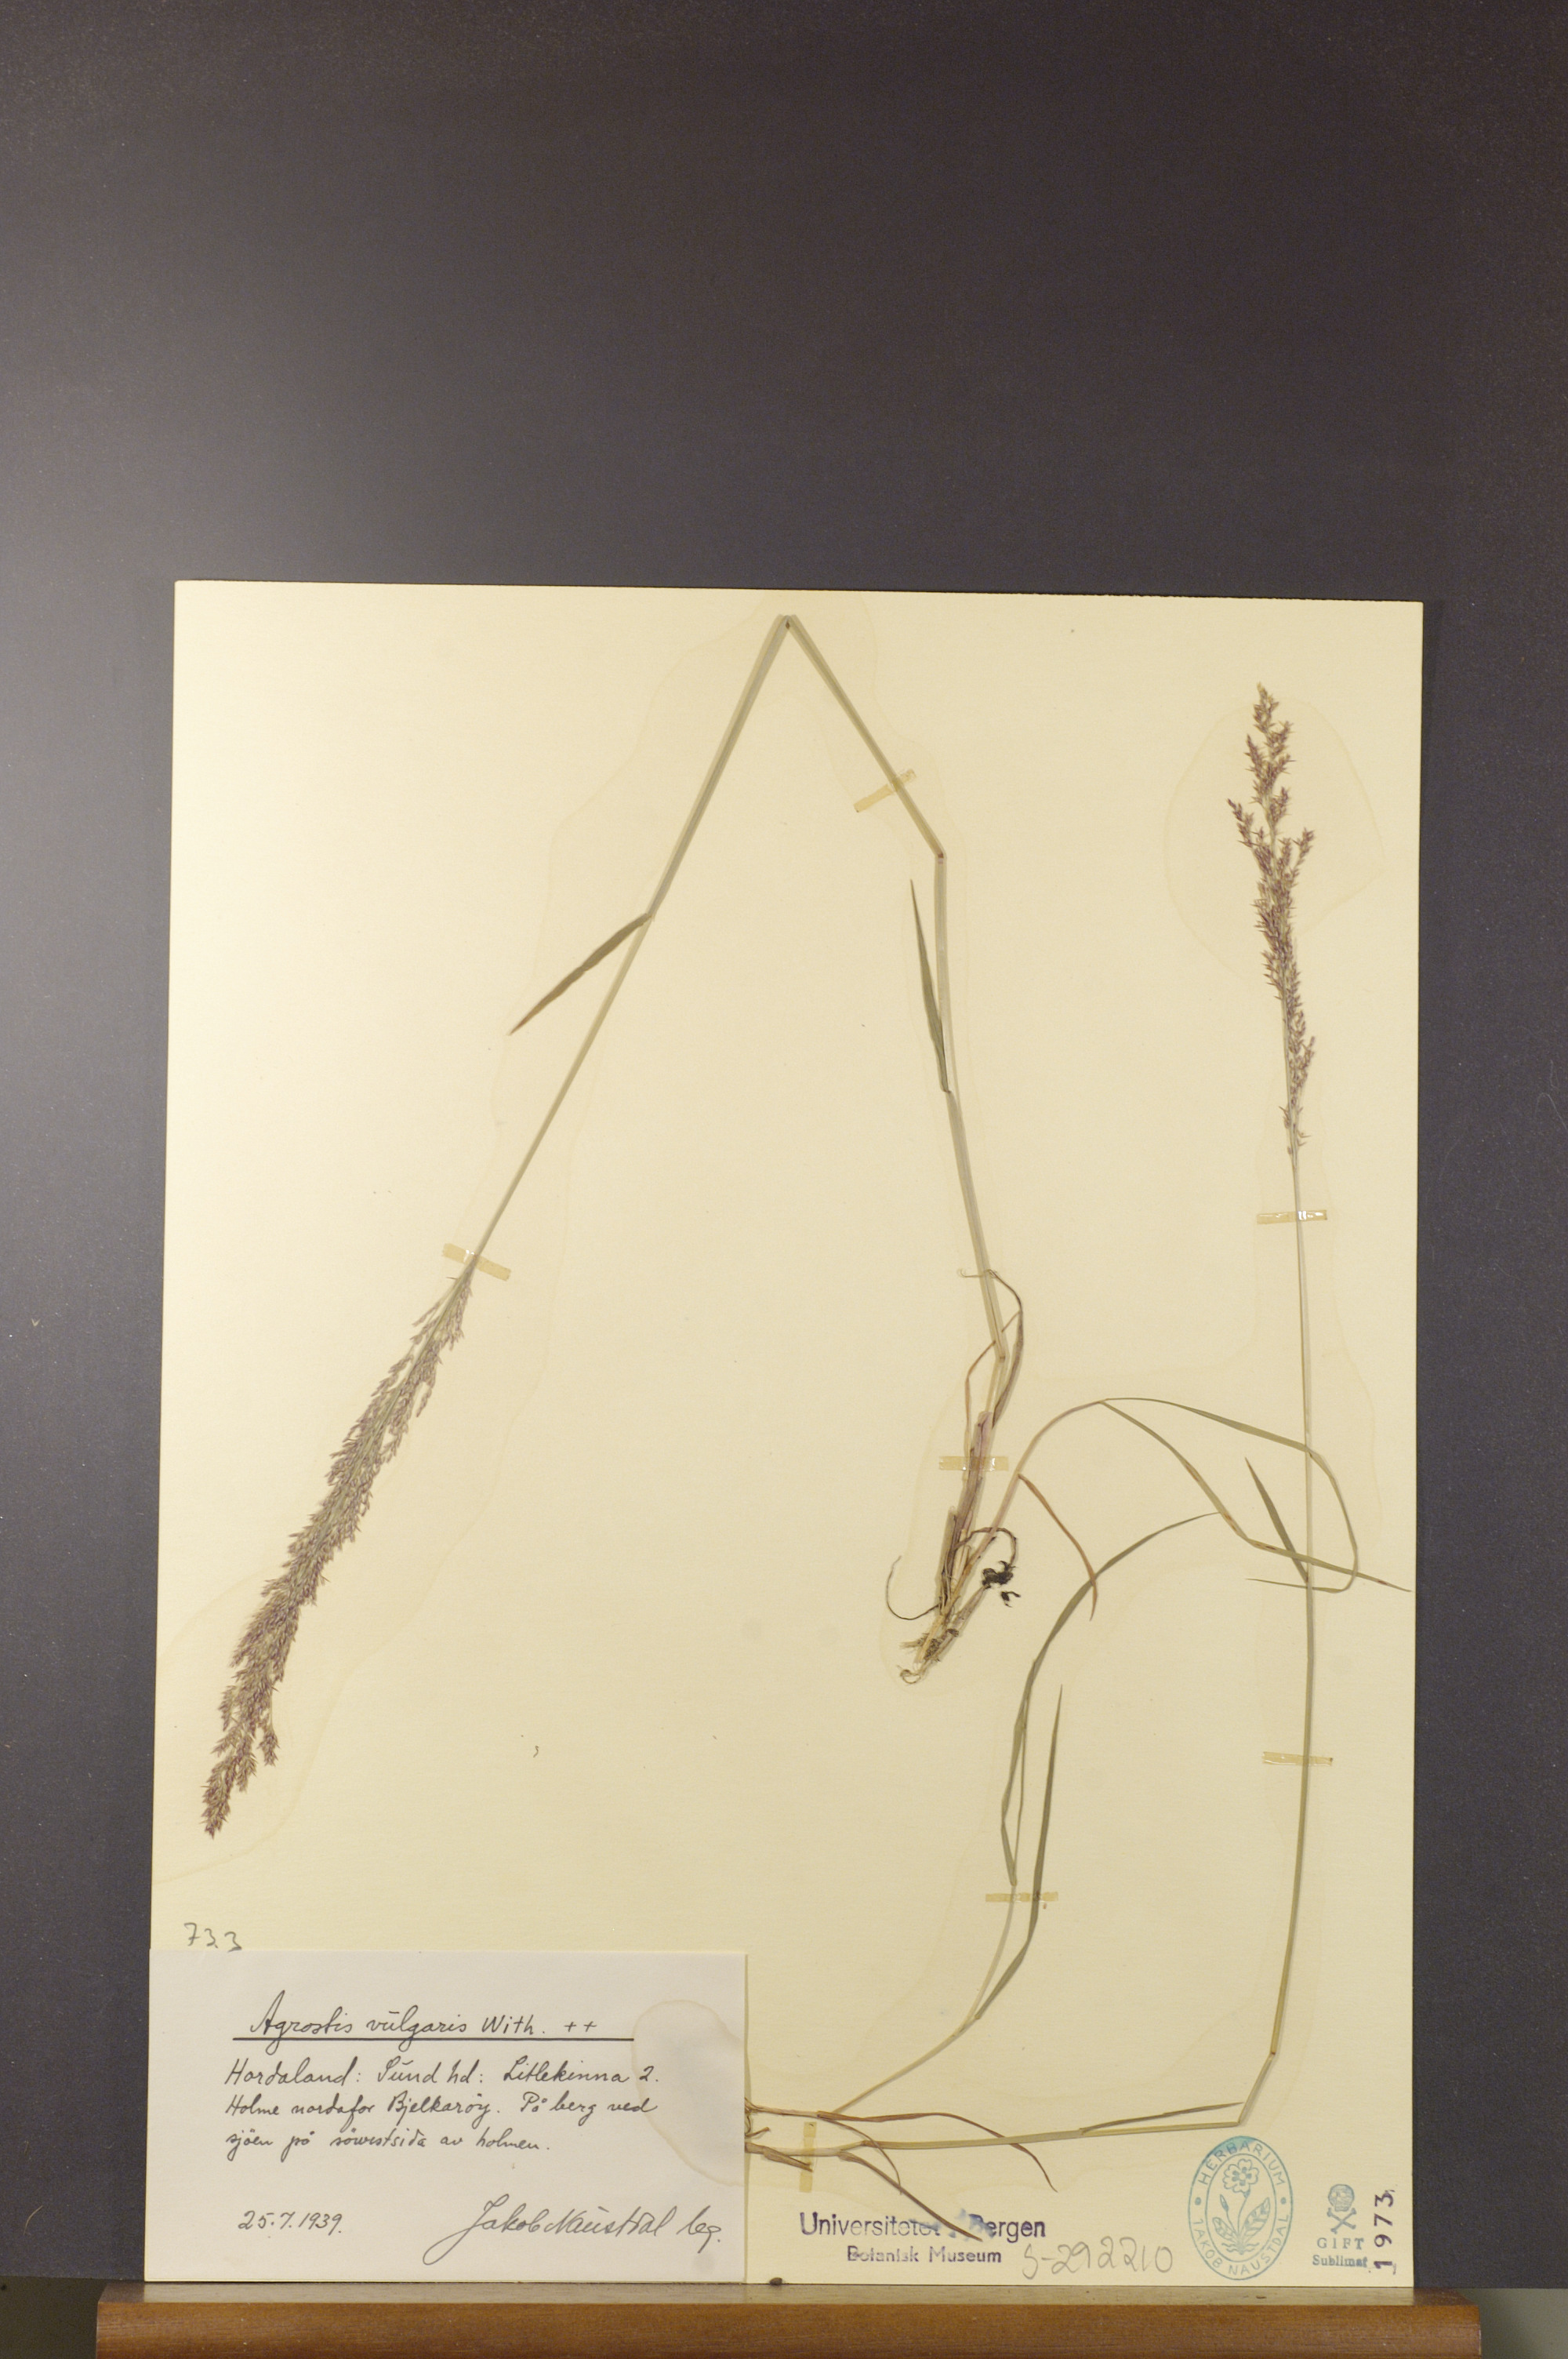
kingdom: Plantae
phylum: Tracheophyta
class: Liliopsida
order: Poales
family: Poaceae
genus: Agrostis
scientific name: Agrostis capillaris
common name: Colonial bentgrass
